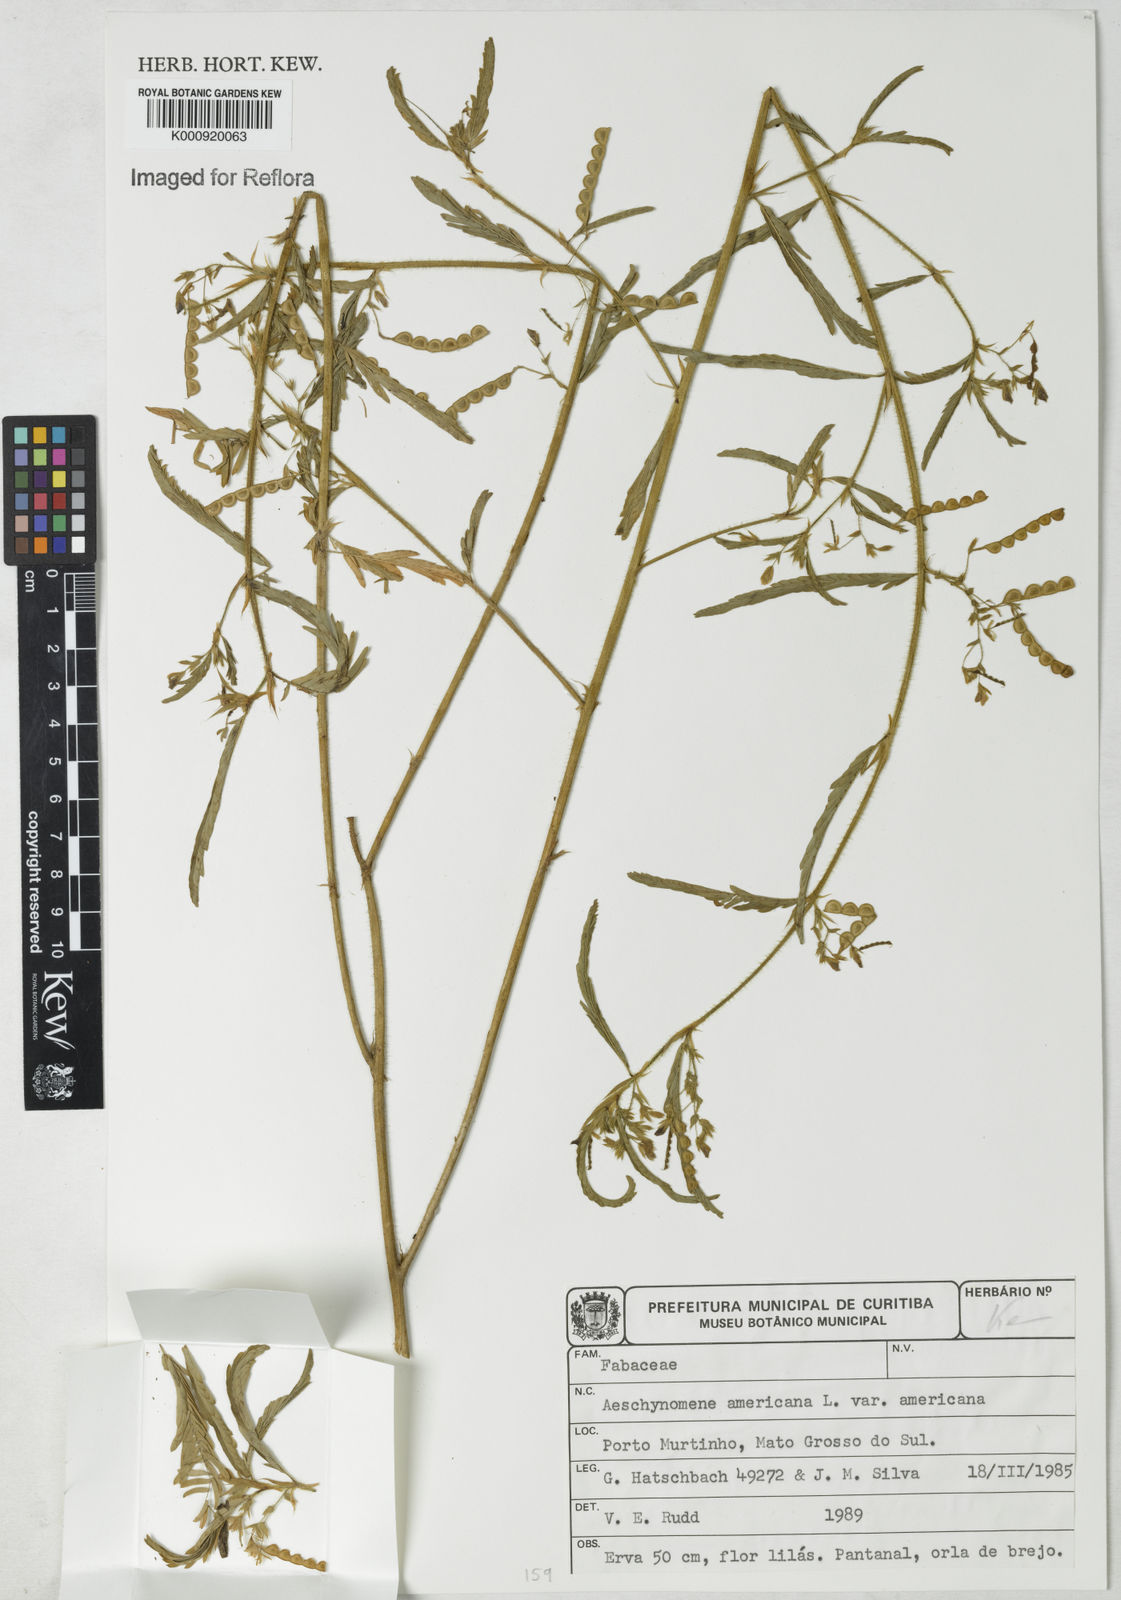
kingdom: Plantae
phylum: Tracheophyta
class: Magnoliopsida
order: Fabales
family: Fabaceae
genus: Aeschynomene
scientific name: Aeschynomene americana
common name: Joint-vetch
